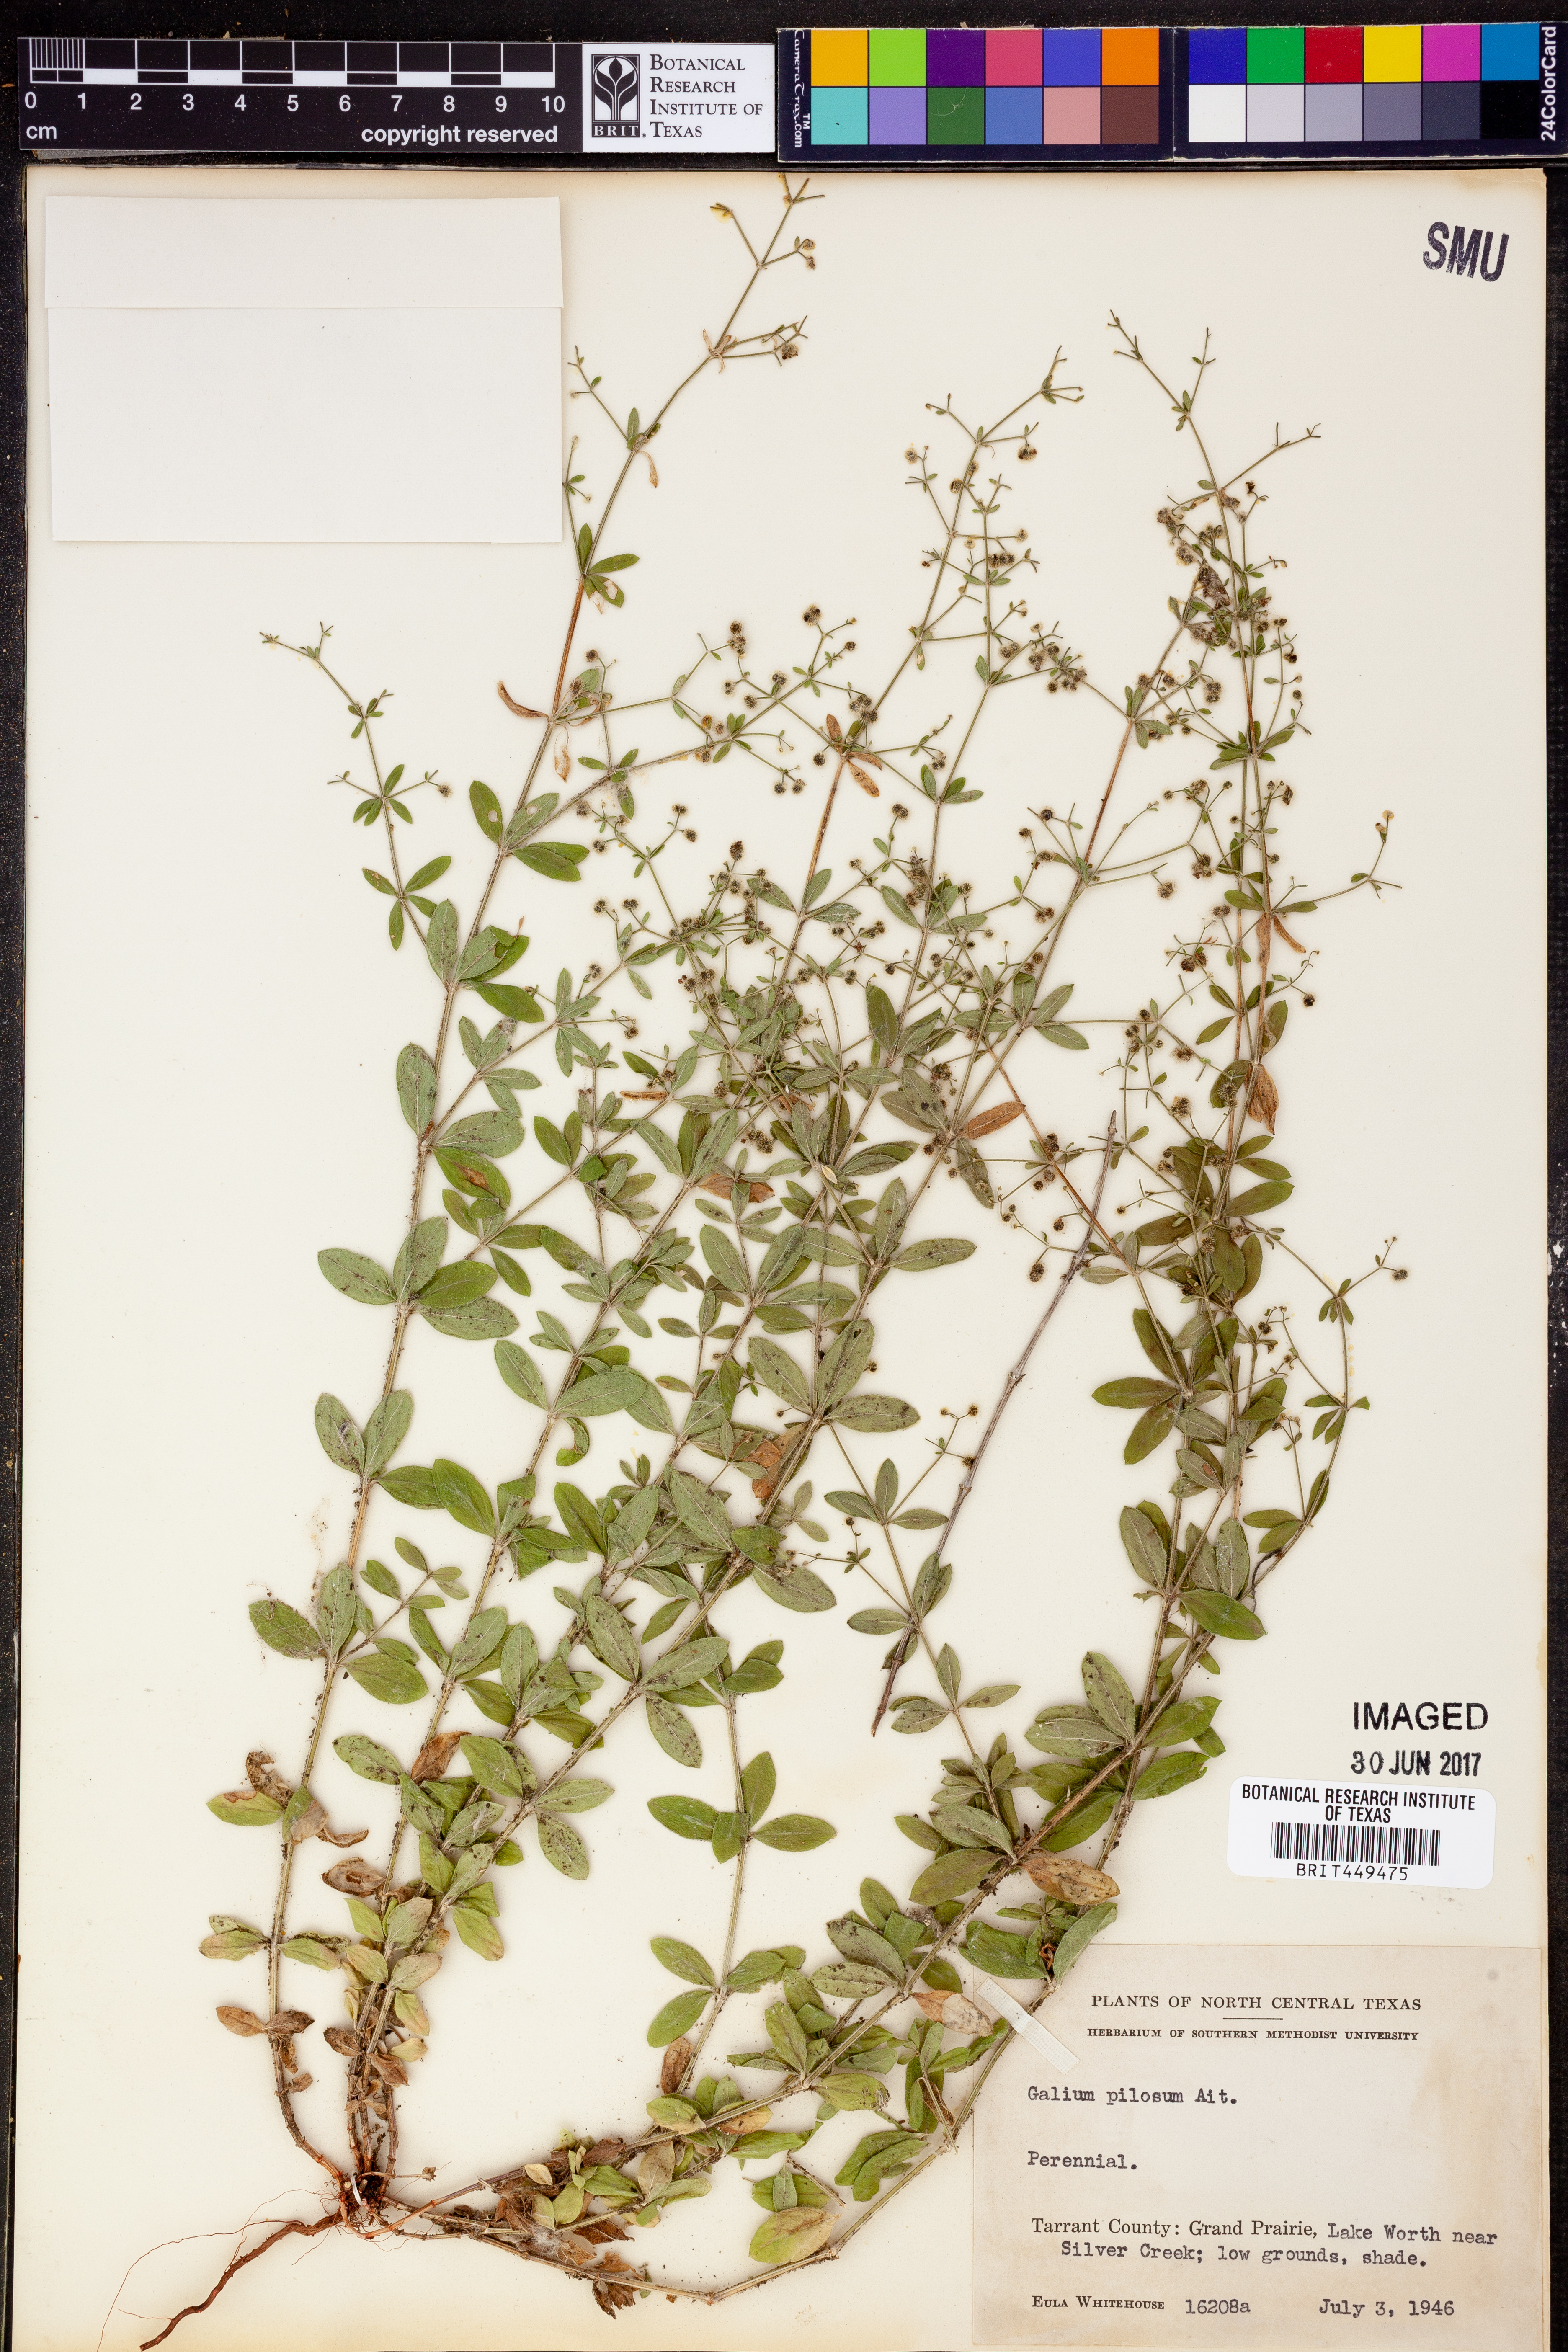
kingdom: Plantae
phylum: Tracheophyta
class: Magnoliopsida
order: Gentianales
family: Rubiaceae
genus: Galium
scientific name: Galium pilosum
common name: Hairy bedstraw
